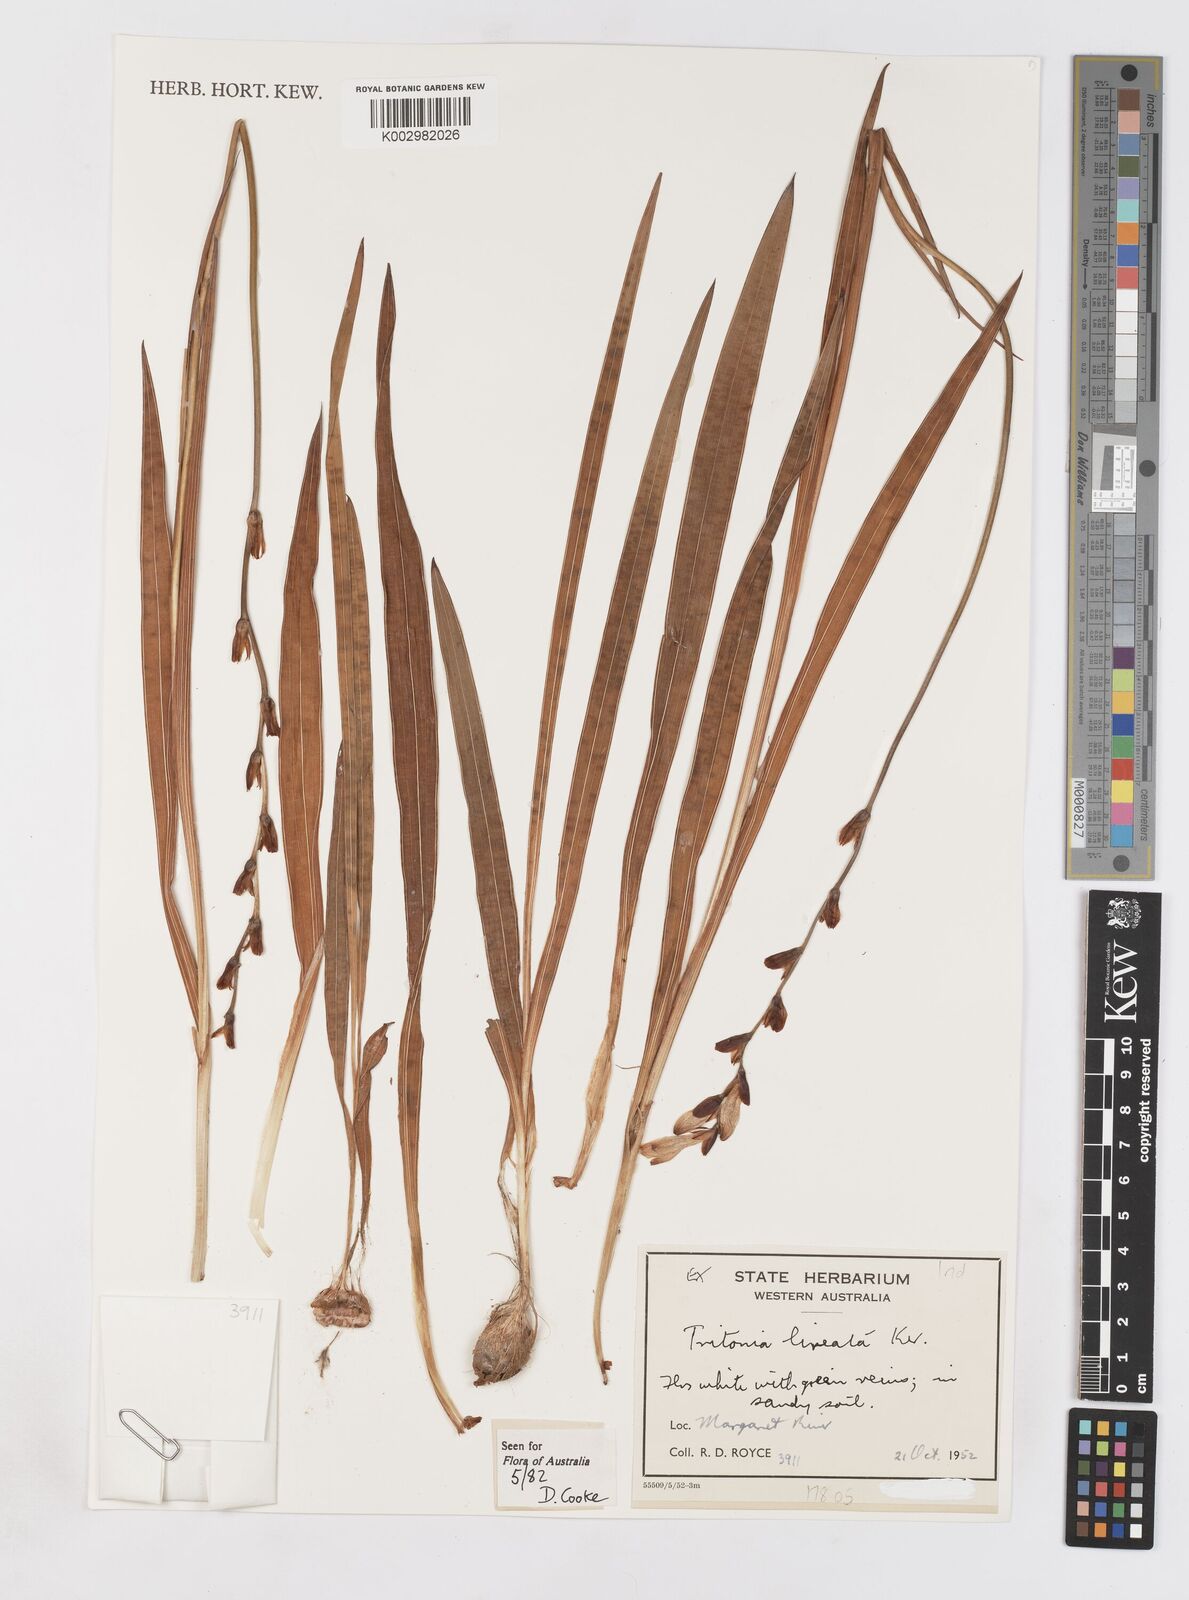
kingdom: Plantae
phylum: Tracheophyta
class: Liliopsida
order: Asparagales
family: Iridaceae
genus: Tritonia
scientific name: Tritonia gladiolaris
